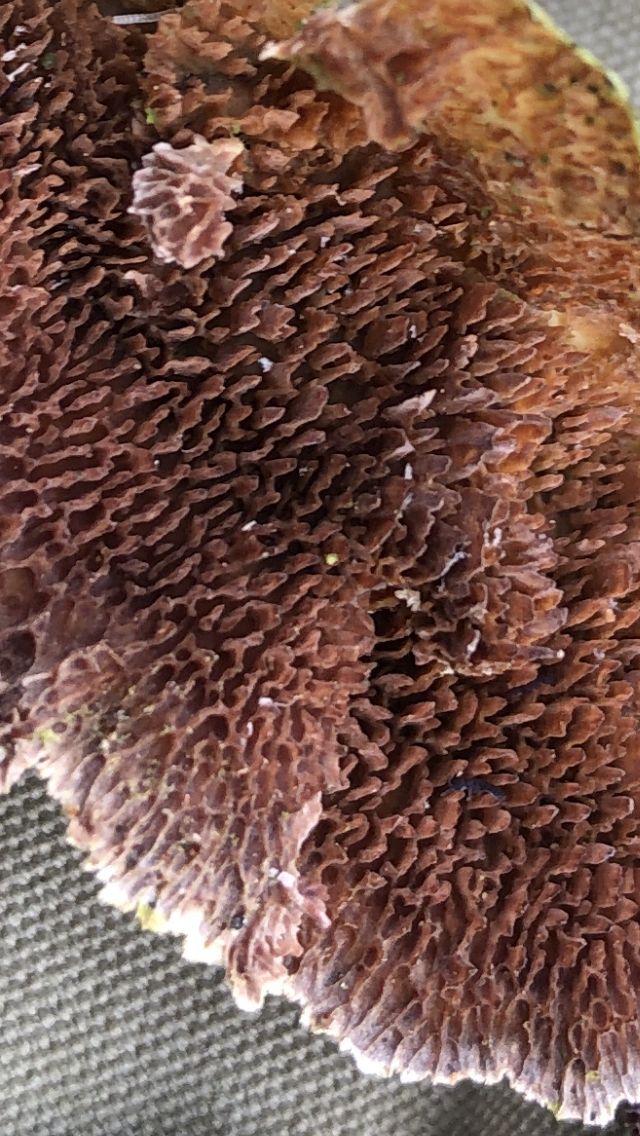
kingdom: Fungi
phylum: Basidiomycota
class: Agaricomycetes
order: Hymenochaetales
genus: Trichaptum
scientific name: Trichaptum fuscoviolaceum
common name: tandet violporesvamp
